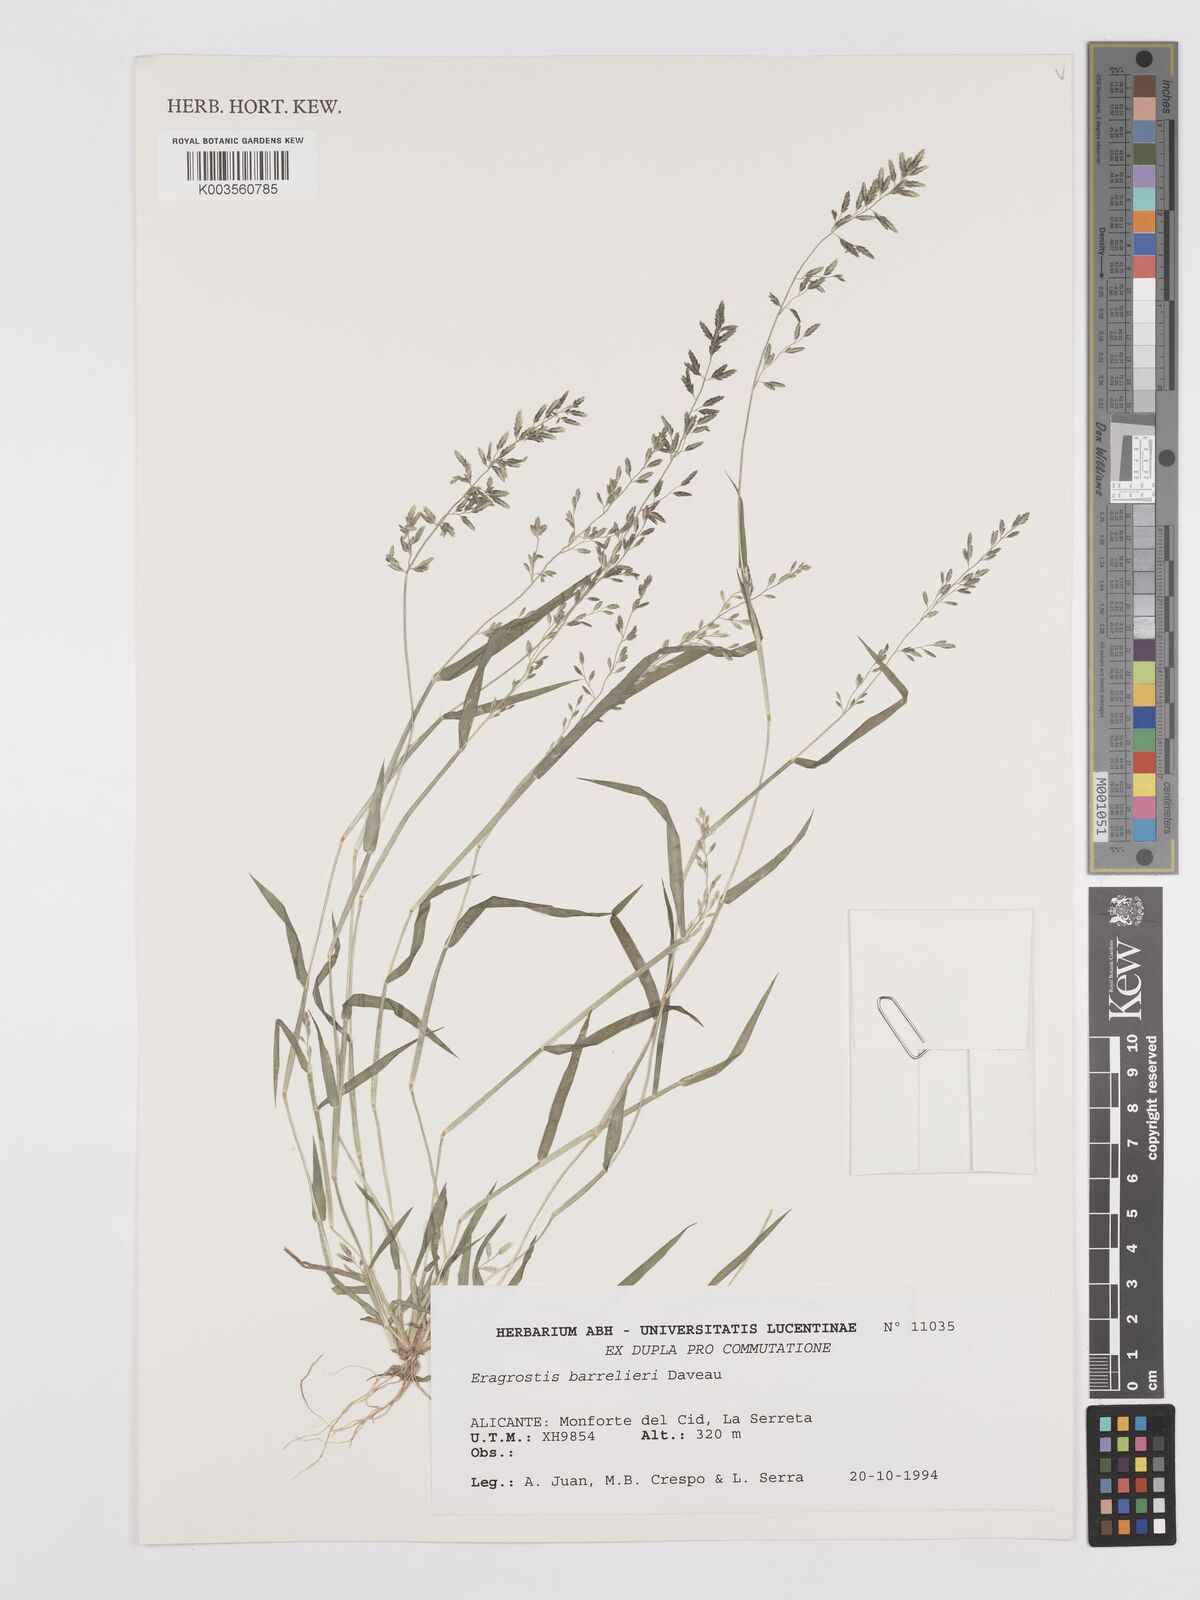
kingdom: Plantae
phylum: Tracheophyta
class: Liliopsida
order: Poales
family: Poaceae
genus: Eragrostis
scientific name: Eragrostis barrelieri
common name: Mediterranean lovegrass
